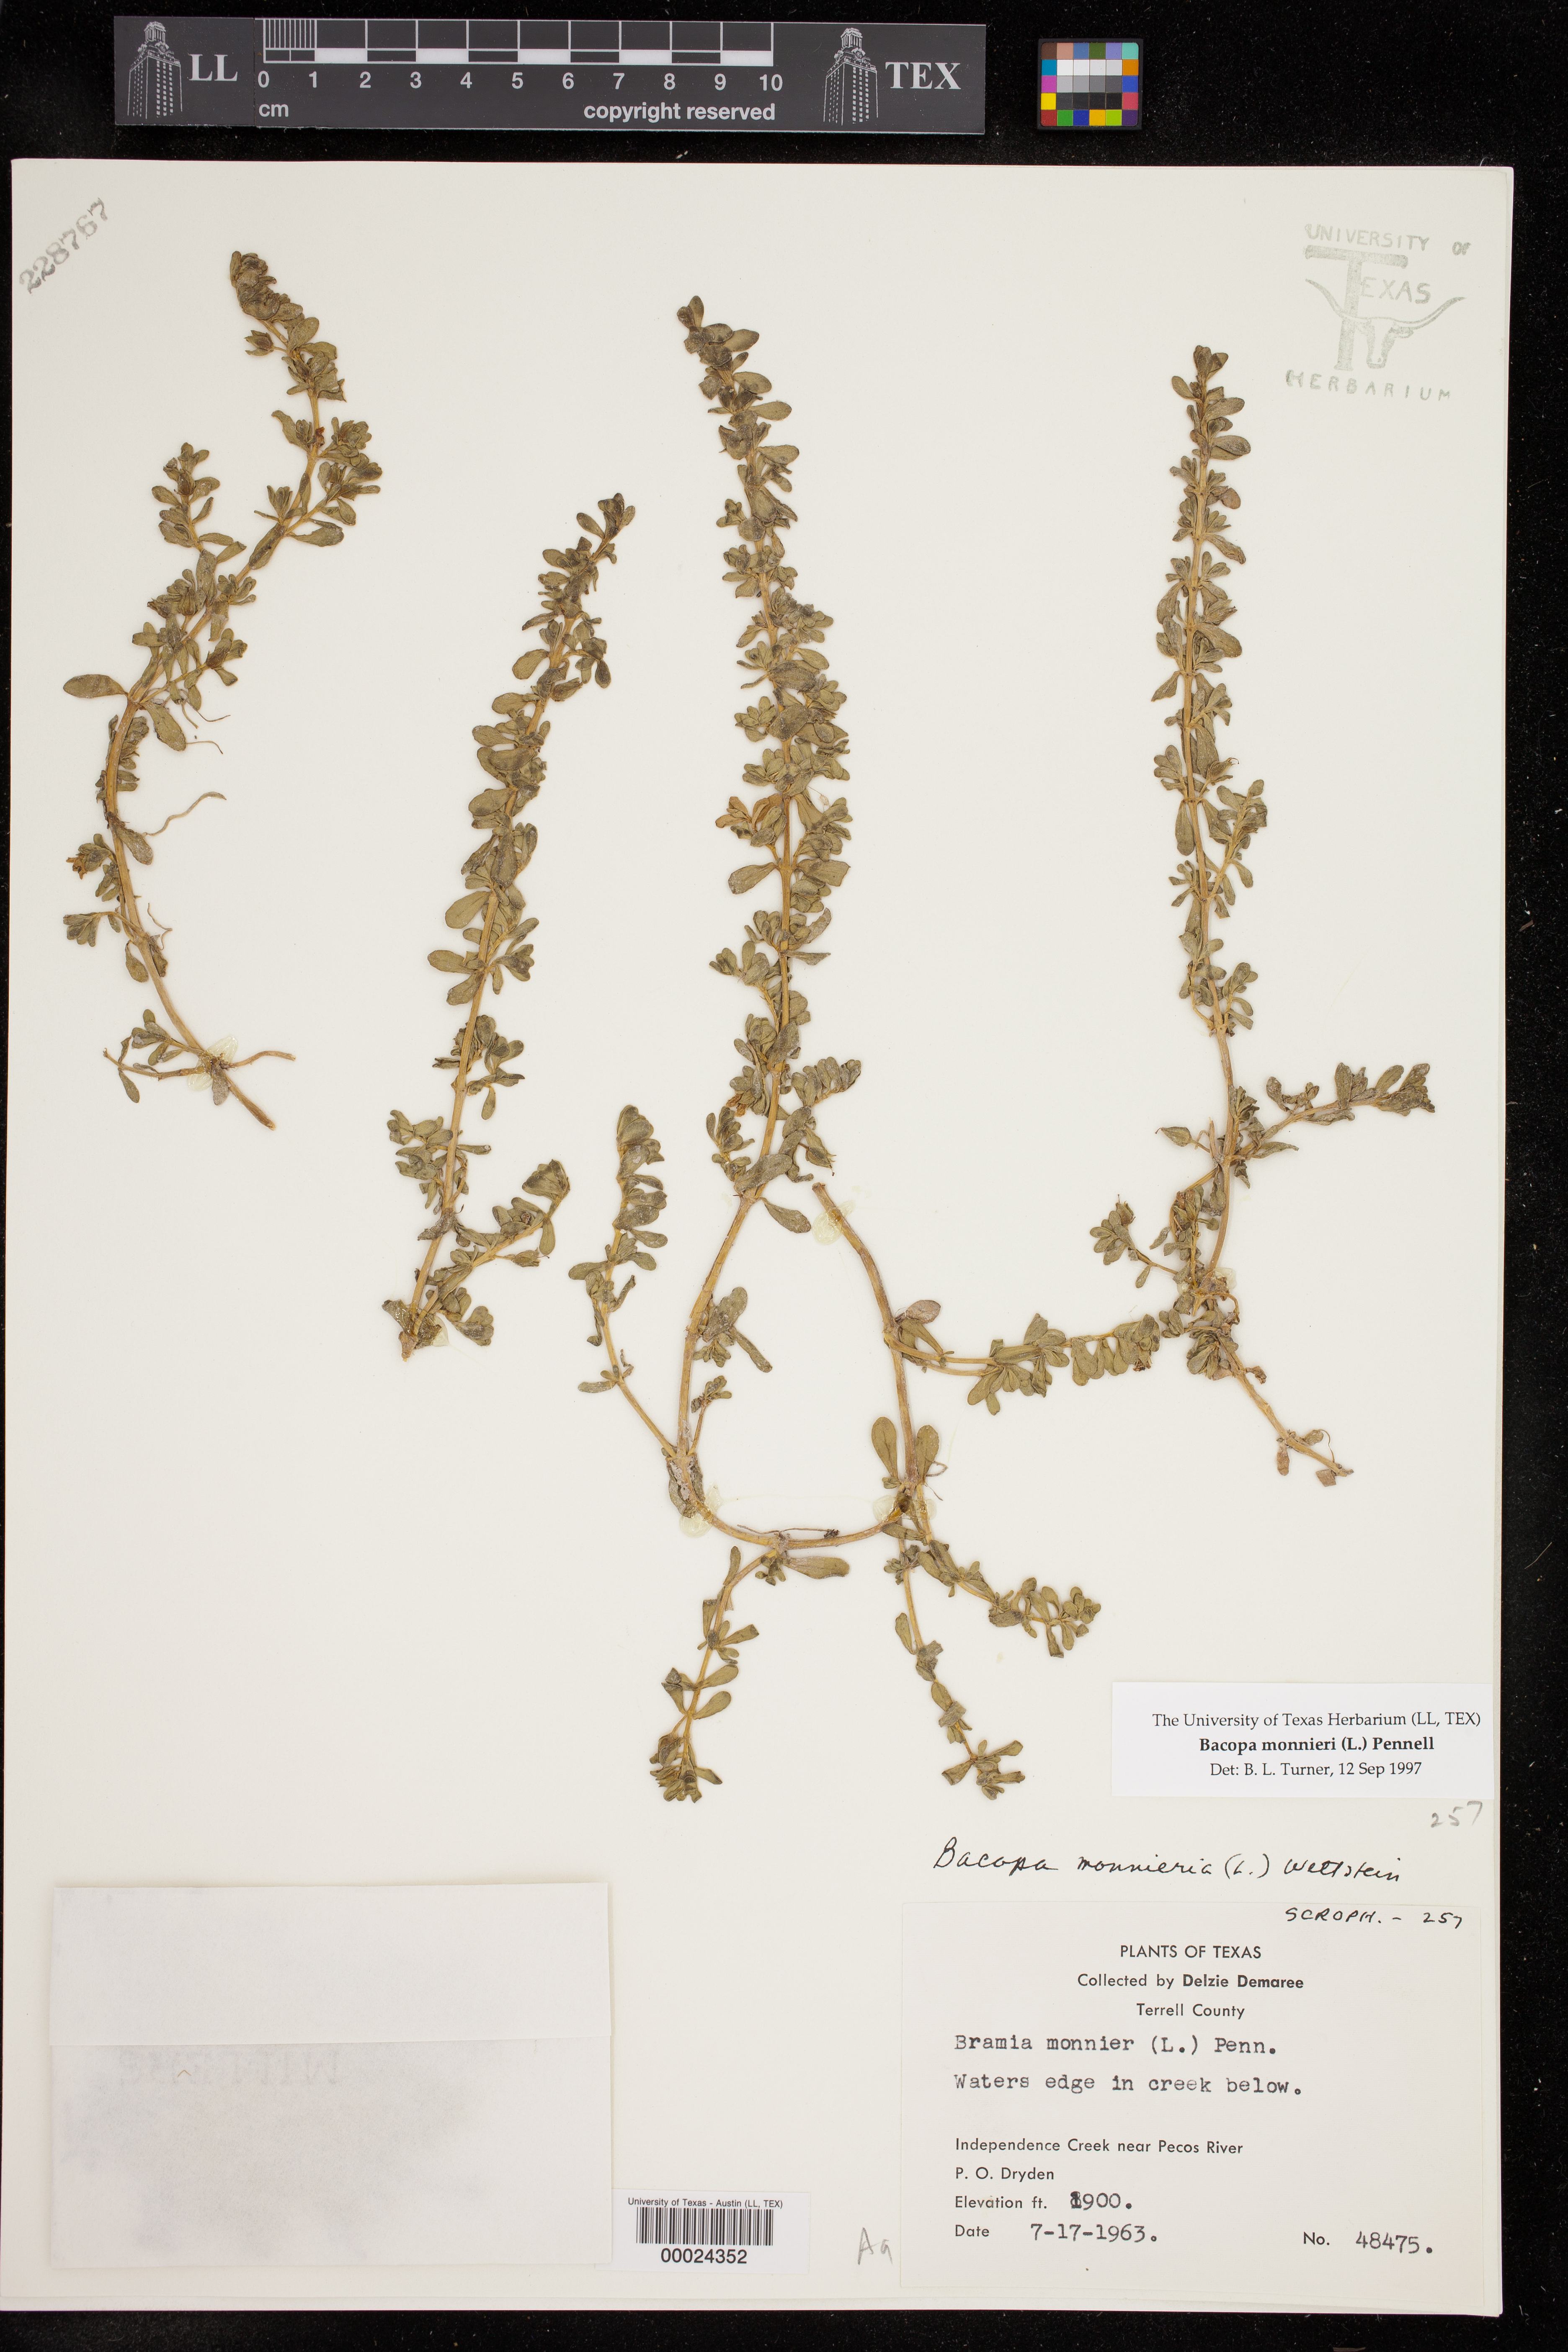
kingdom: Plantae
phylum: Tracheophyta
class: Magnoliopsida
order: Lamiales
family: Plantaginaceae
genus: Bacopa
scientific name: Bacopa monnieri
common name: Indian-pennywort
